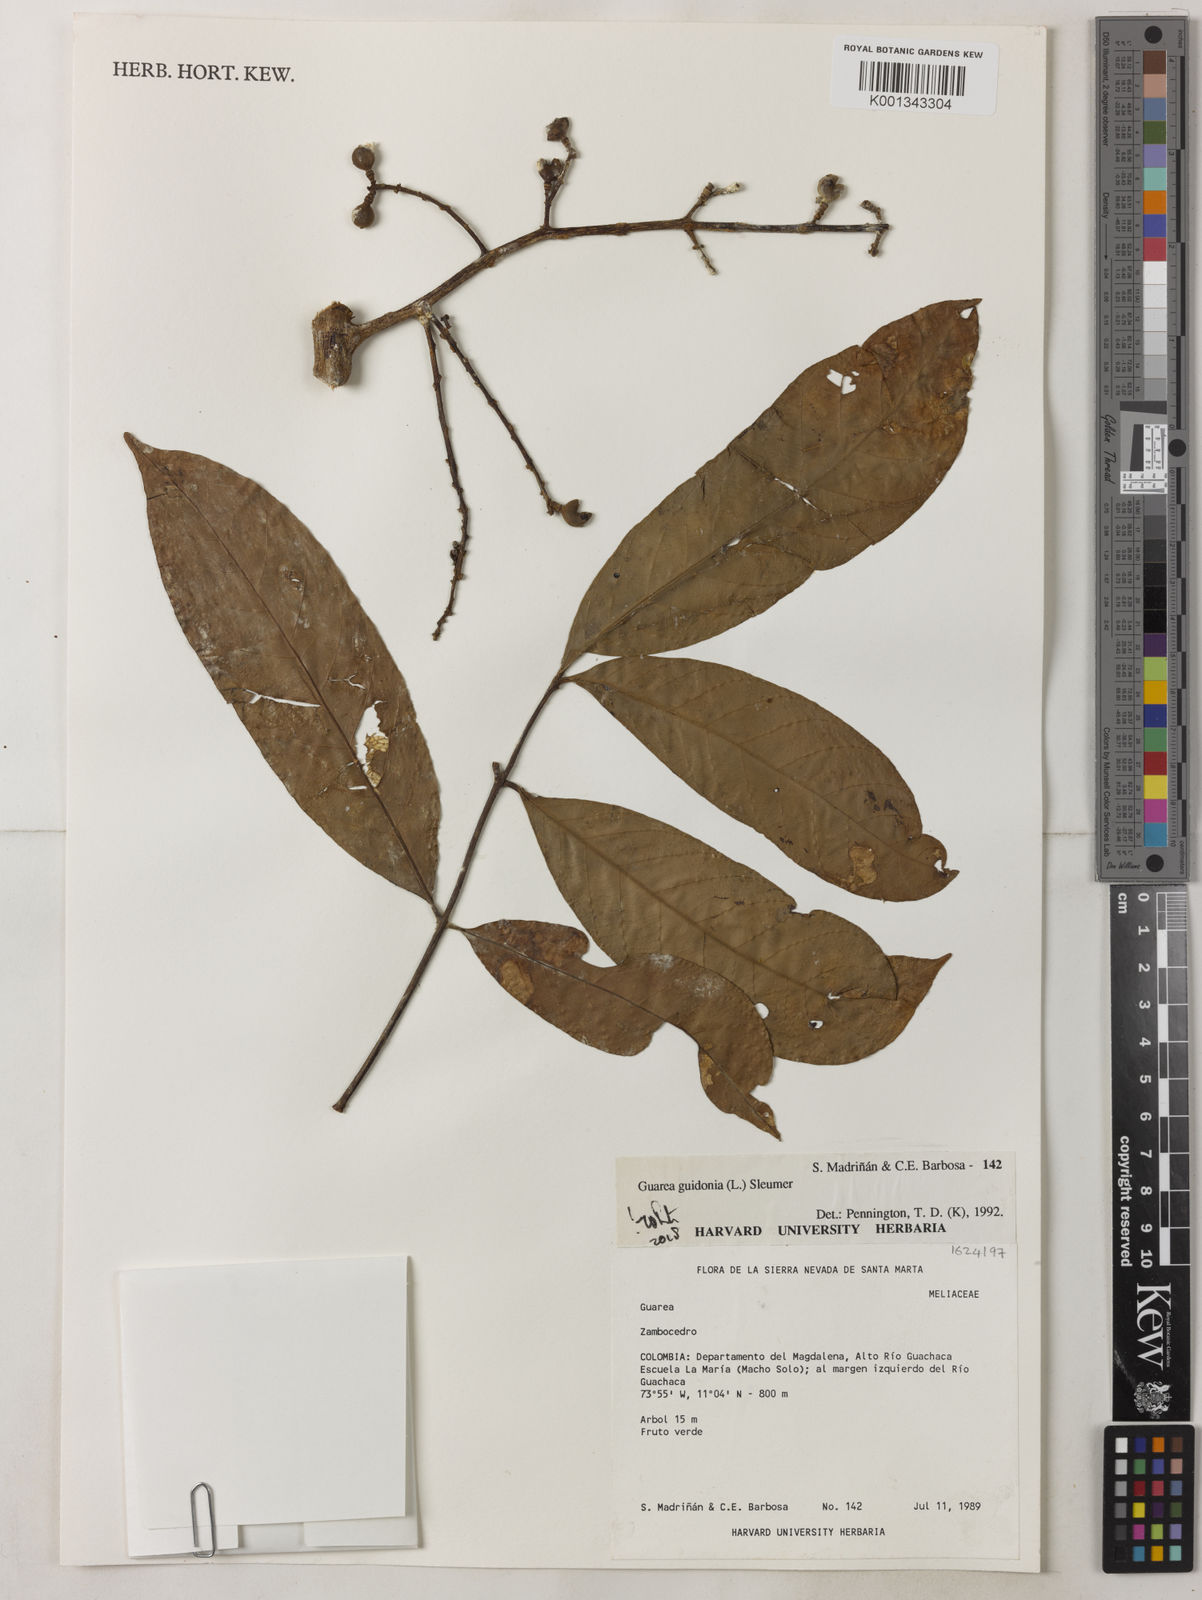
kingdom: Plantae
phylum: Tracheophyta
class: Magnoliopsida
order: Sapindales
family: Meliaceae
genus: Guarea
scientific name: Guarea guidonia
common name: American muskwood
